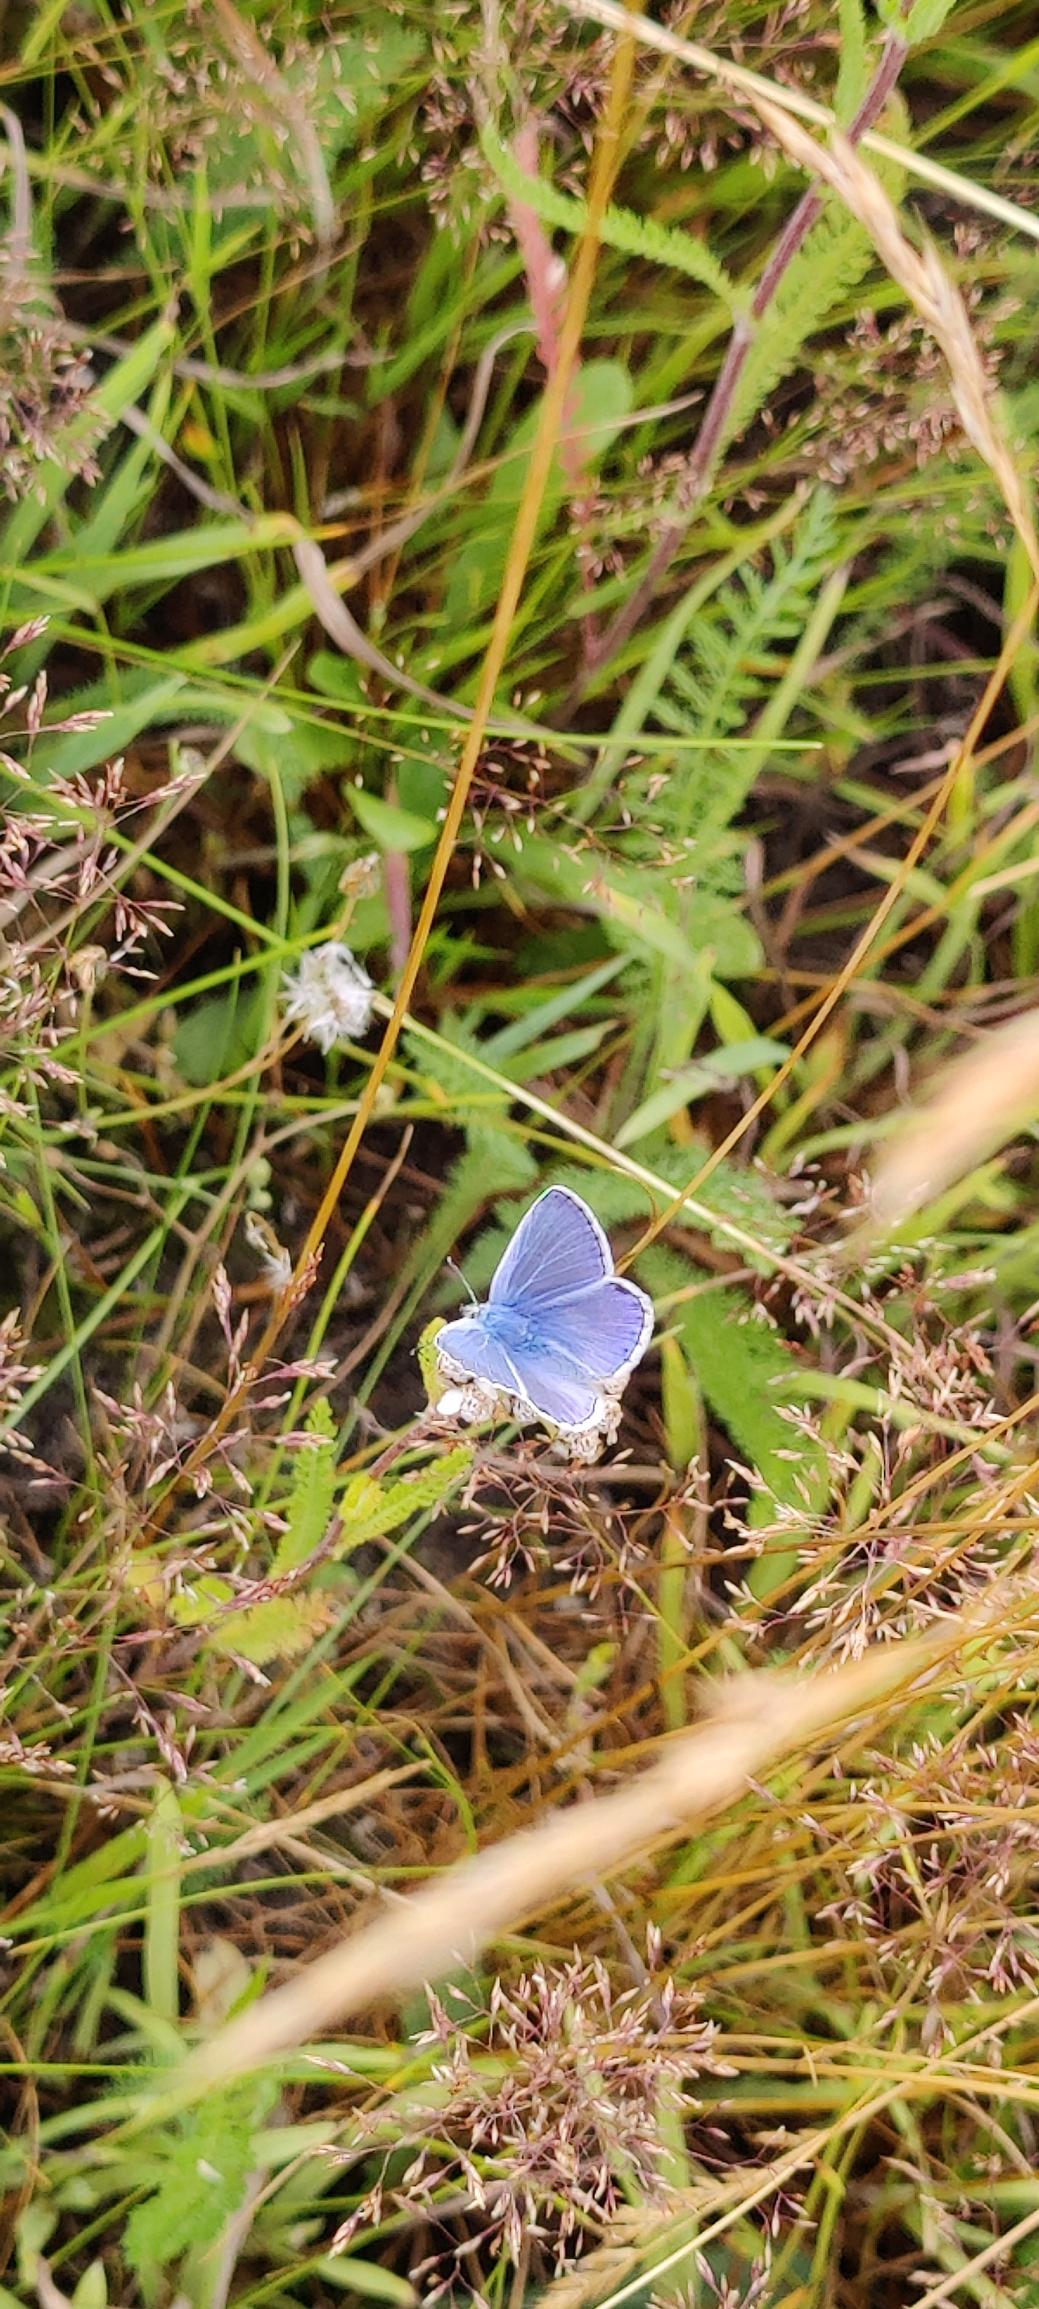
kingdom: Animalia
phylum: Arthropoda
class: Insecta
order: Lepidoptera
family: Lycaenidae
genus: Polyommatus
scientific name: Polyommatus icarus
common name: Almindelig blåfugl
